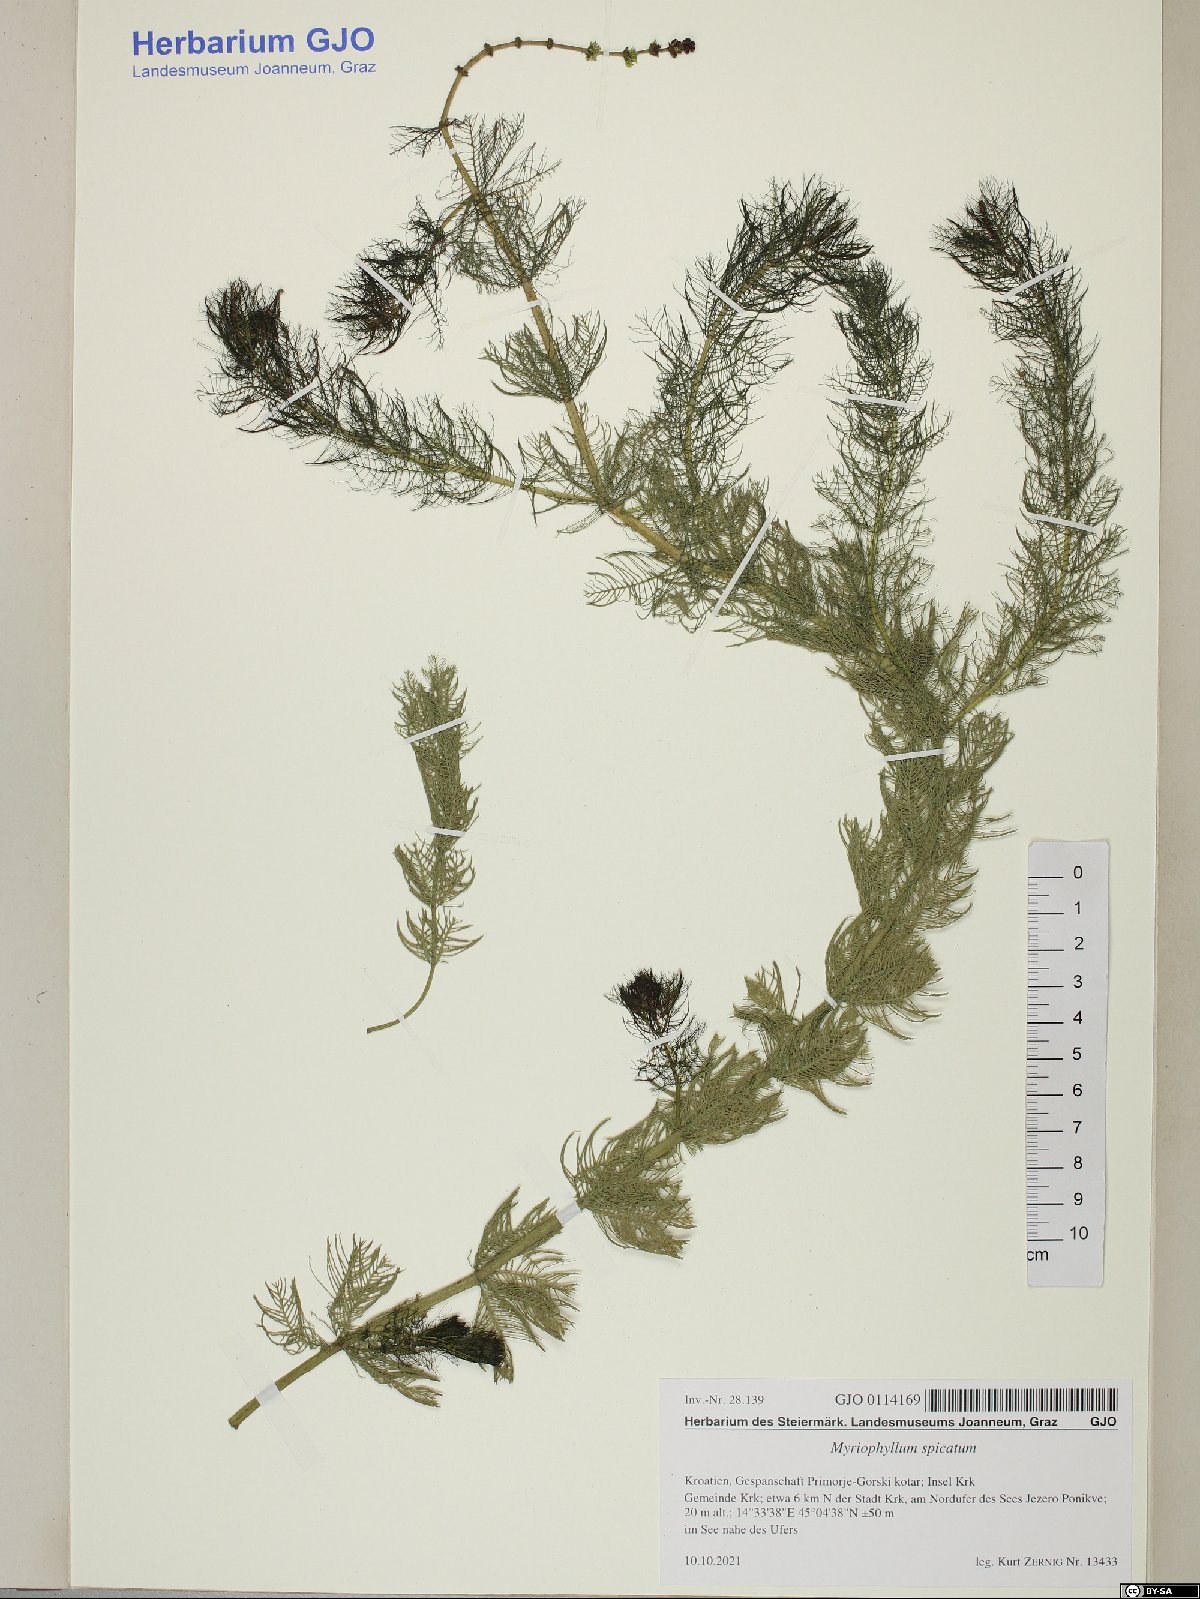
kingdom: Plantae
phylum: Tracheophyta
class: Magnoliopsida
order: Saxifragales
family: Haloragaceae
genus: Myriophyllum
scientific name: Myriophyllum spicatum
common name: Spiked water-milfoil
